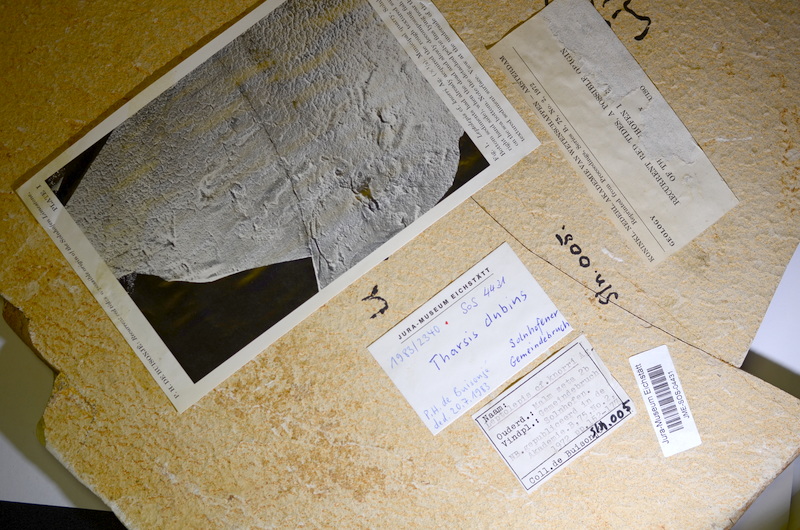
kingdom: Animalia
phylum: Chordata
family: Ascalaboidae
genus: Tharsis
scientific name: Tharsis dubius
